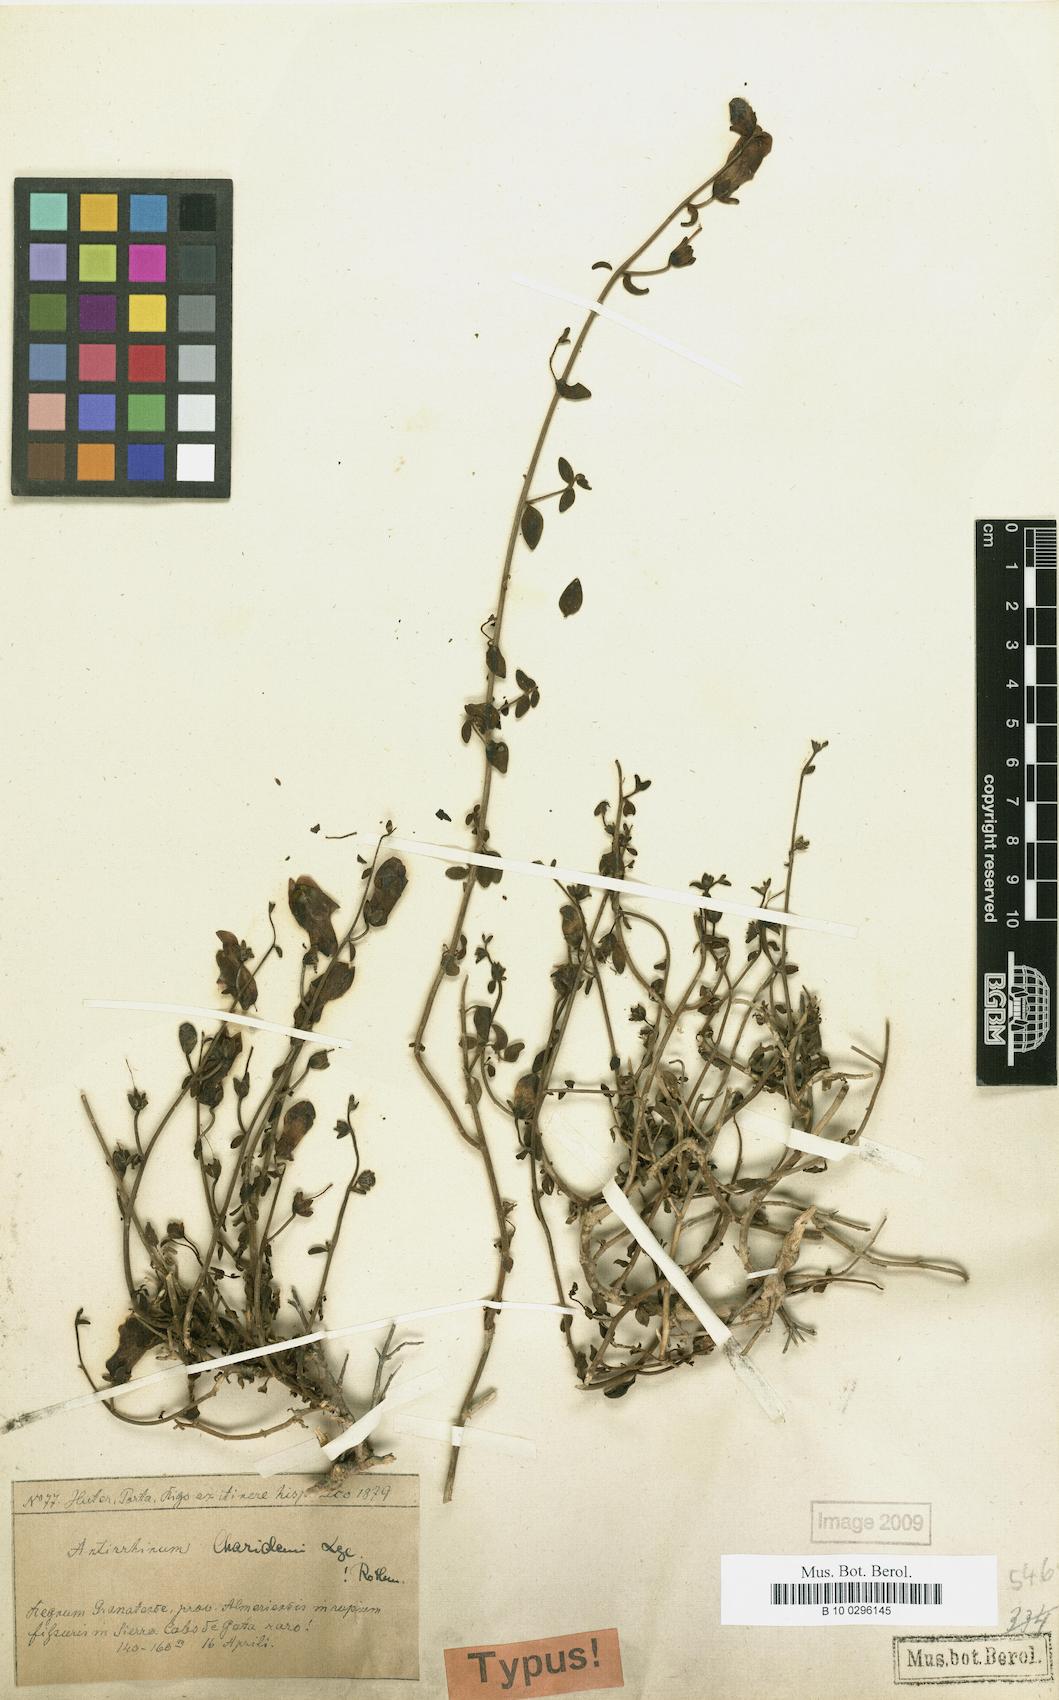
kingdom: Plantae
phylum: Tracheophyta
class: Magnoliopsida
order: Lamiales
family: Plantaginaceae
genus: Antirrhinum
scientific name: Antirrhinum charidemi
